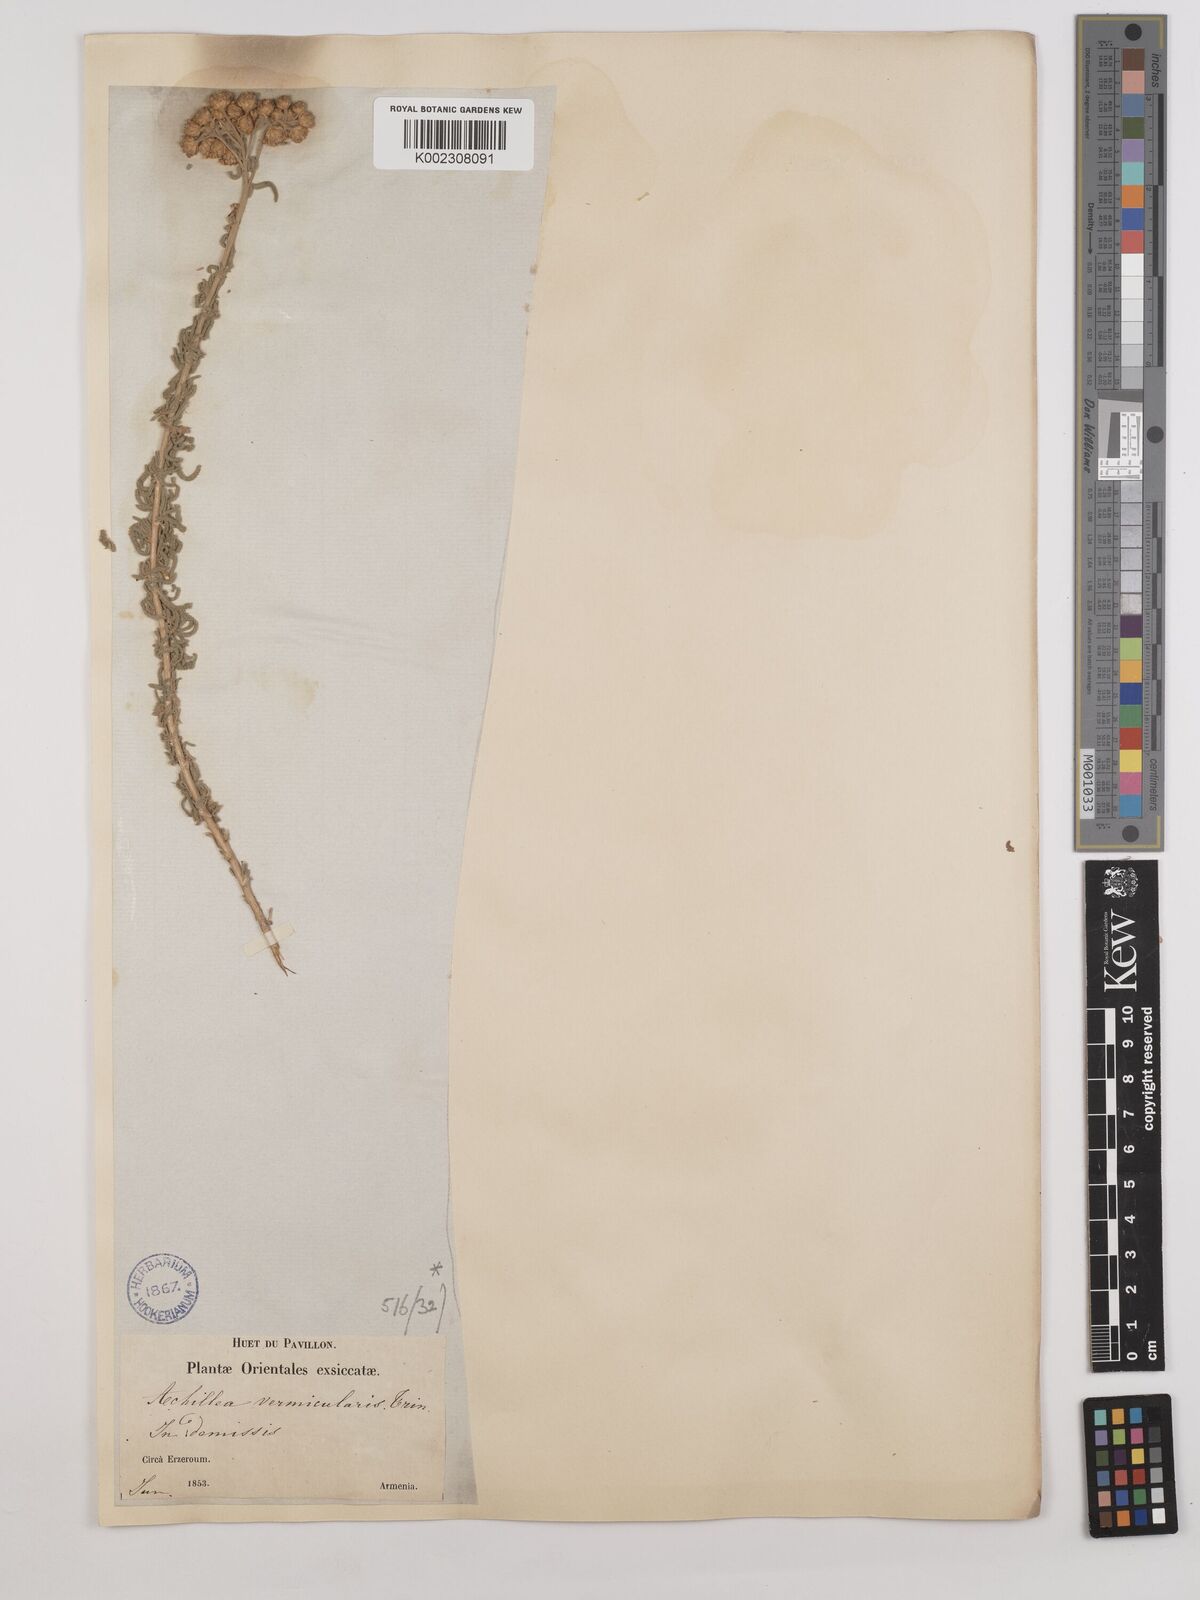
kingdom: Plantae
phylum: Tracheophyta
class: Magnoliopsida
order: Asterales
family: Asteraceae
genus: Achillea
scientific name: Achillea vermicularis
